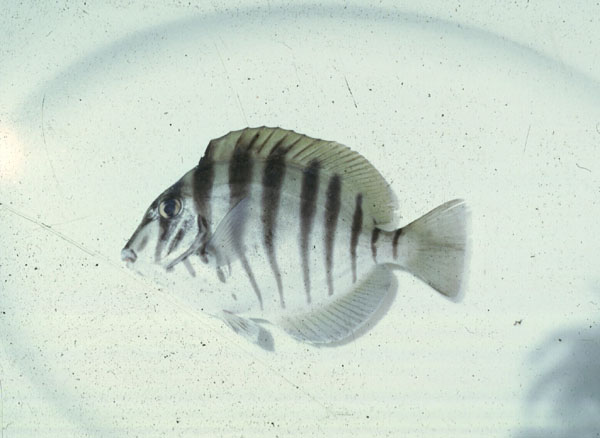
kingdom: Animalia
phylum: Chordata
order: Perciformes
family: Acanthuridae
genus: Acanthurus
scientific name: Acanthurus polyzona
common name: Black-barred surgeonfish
